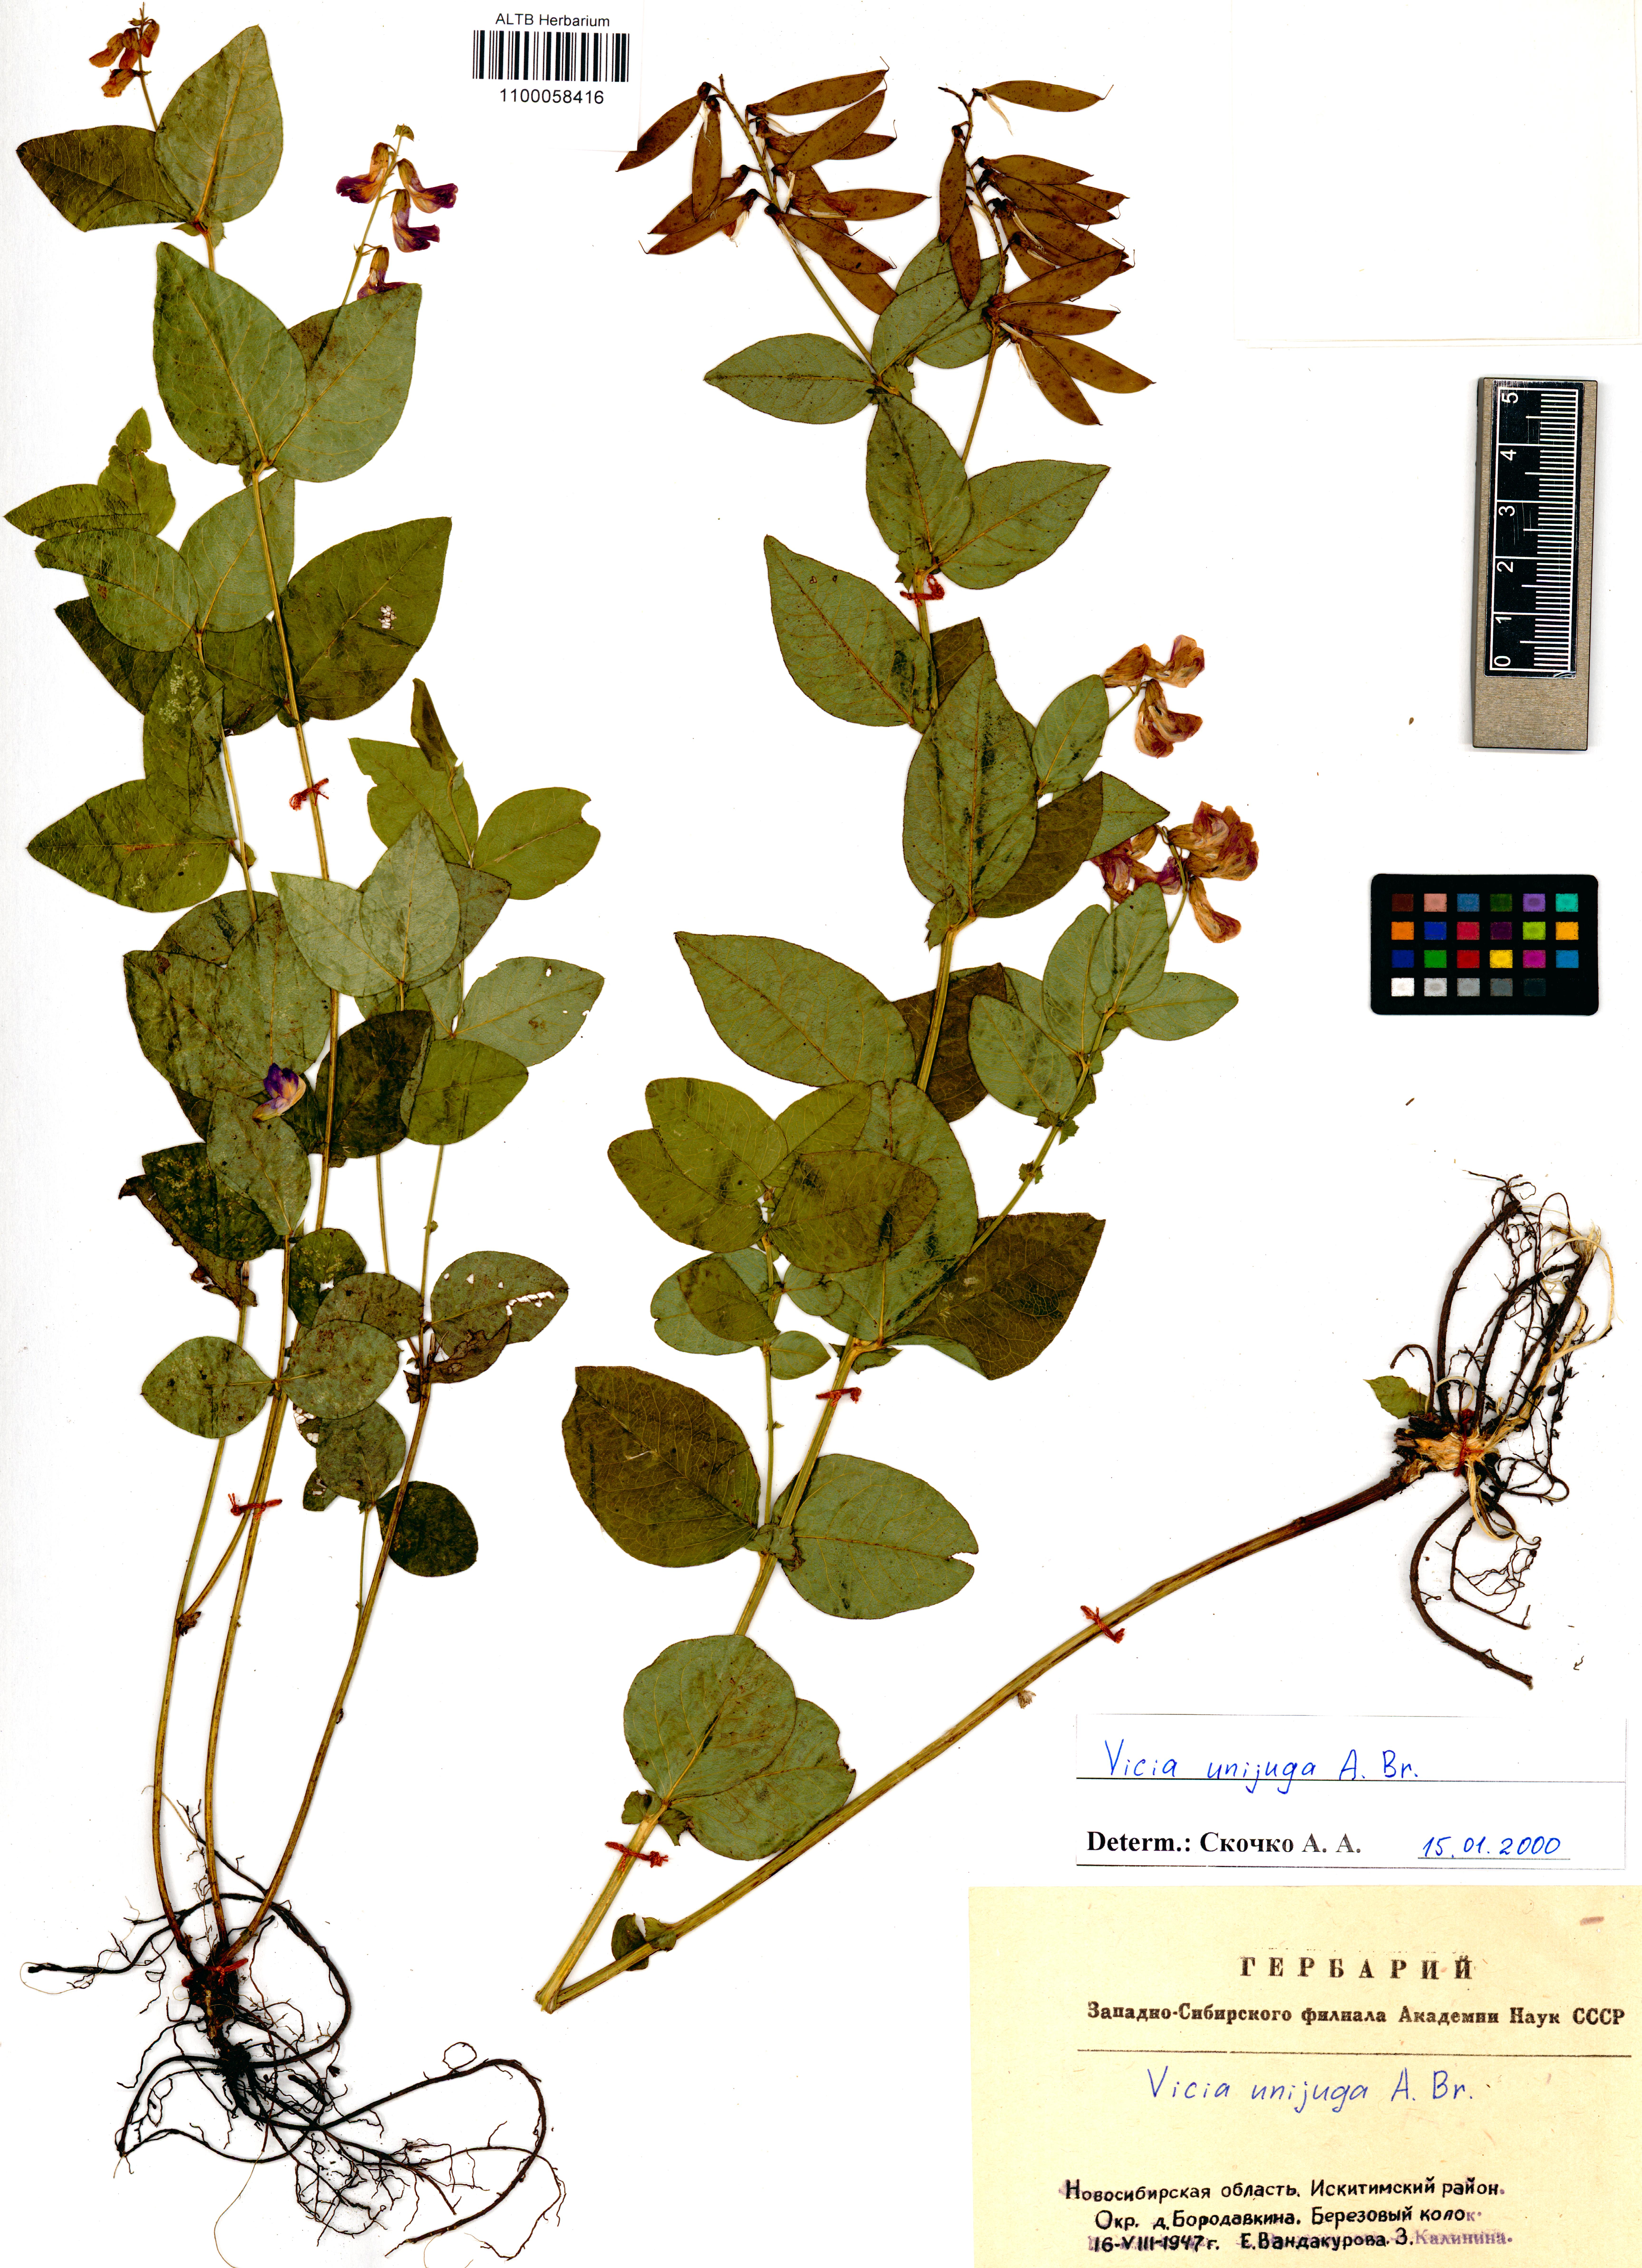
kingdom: Plantae
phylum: Tracheophyta
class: Magnoliopsida
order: Fabales
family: Fabaceae
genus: Vicia
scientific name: Vicia unijuga
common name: Two-leaf vetch
